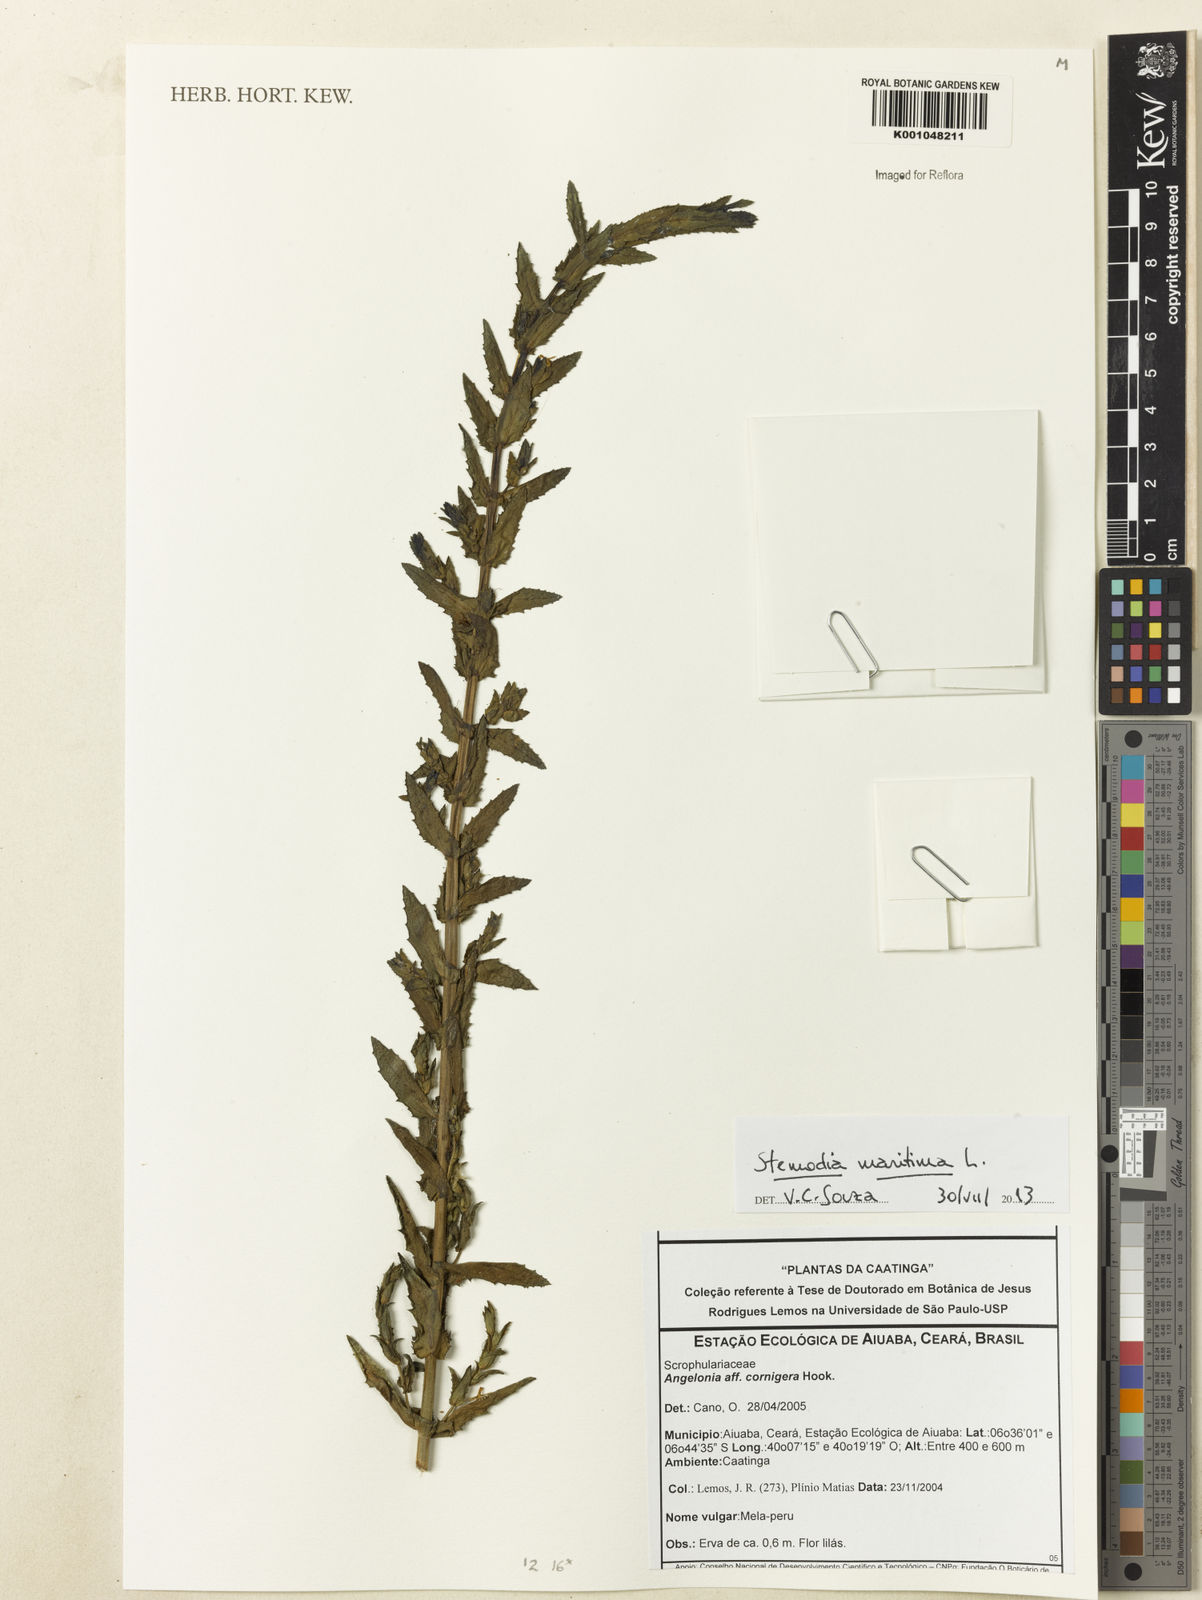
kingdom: Plantae
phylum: Tracheophyta
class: Magnoliopsida
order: Lamiales
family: Plantaginaceae
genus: Stemodia
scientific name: Stemodia maritima
